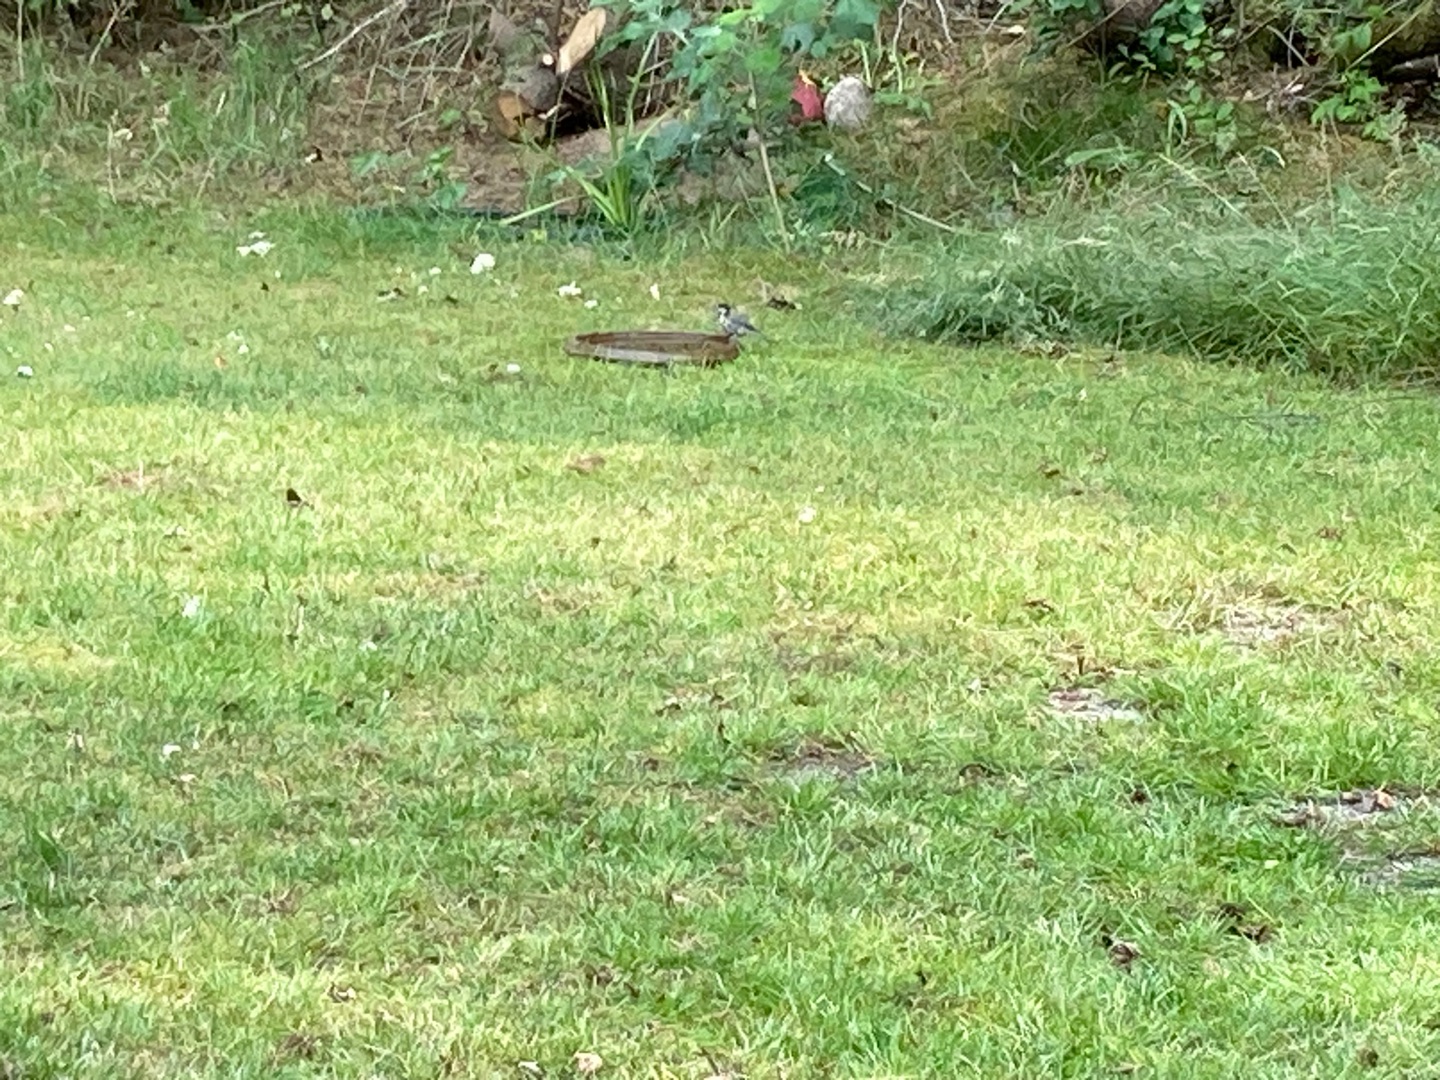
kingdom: Animalia
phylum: Chordata
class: Aves
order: Passeriformes
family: Paridae
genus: Parus
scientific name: Parus major
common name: Musvit
